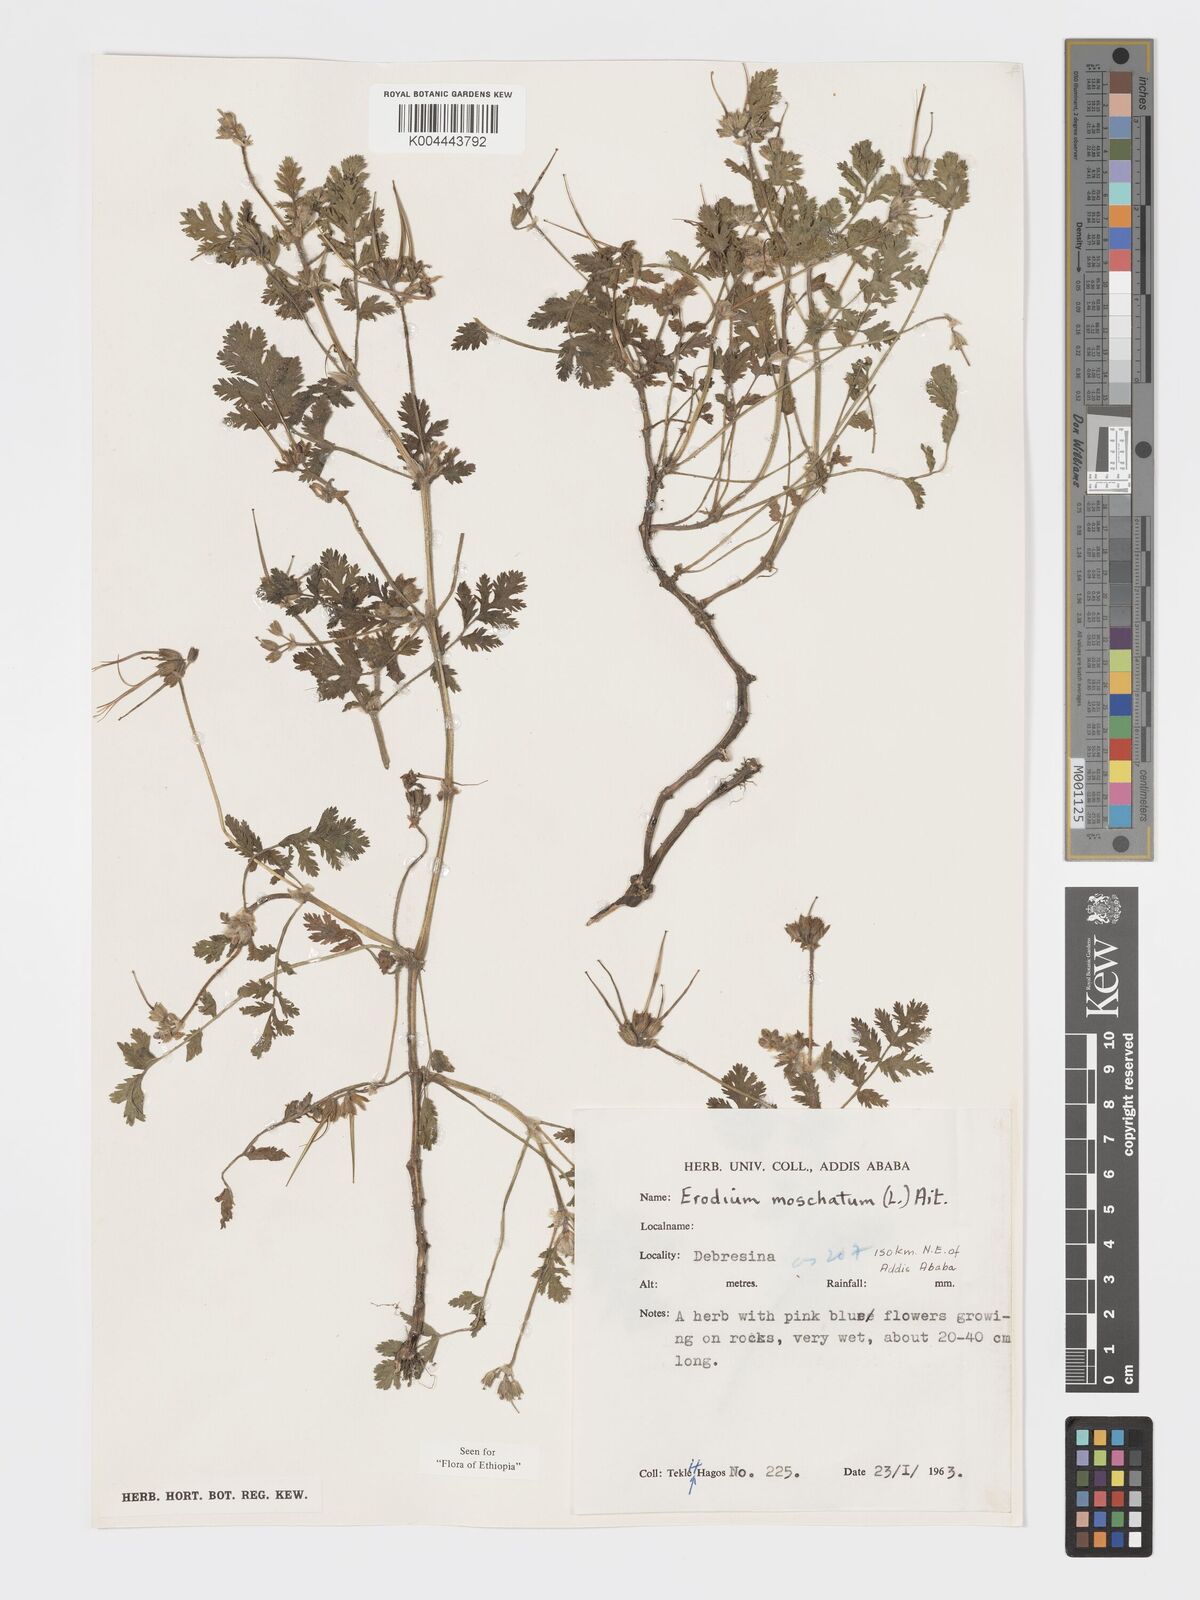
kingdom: Plantae
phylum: Tracheophyta
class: Magnoliopsida
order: Geraniales
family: Geraniaceae
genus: Erodium
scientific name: Erodium moschatum
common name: Musk stork's-bill
